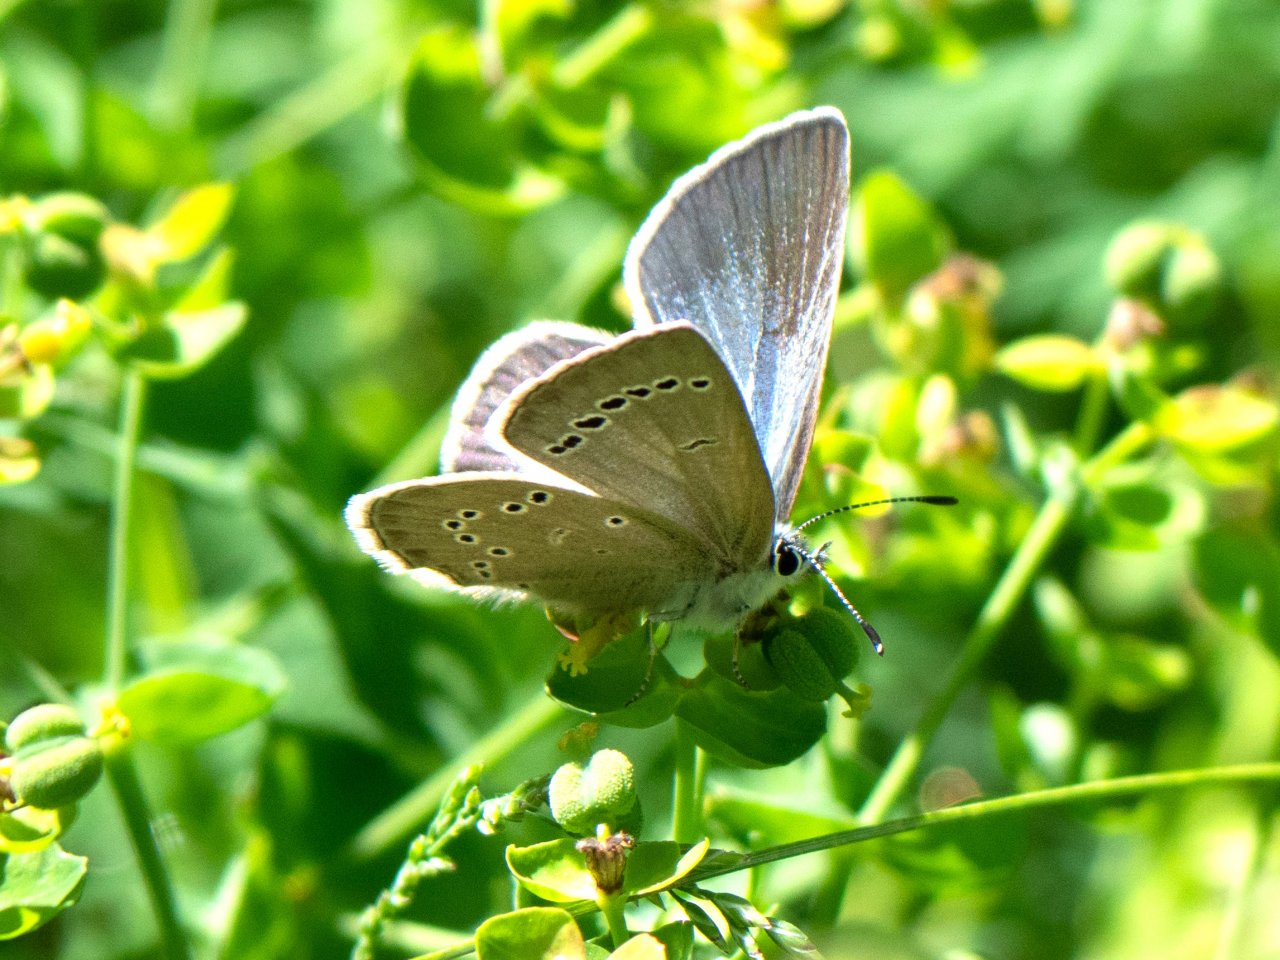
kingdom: Animalia
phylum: Arthropoda
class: Insecta
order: Lepidoptera
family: Lycaenidae
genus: Glaucopsyche
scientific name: Glaucopsyche lygdamus
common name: Silvery Blue
